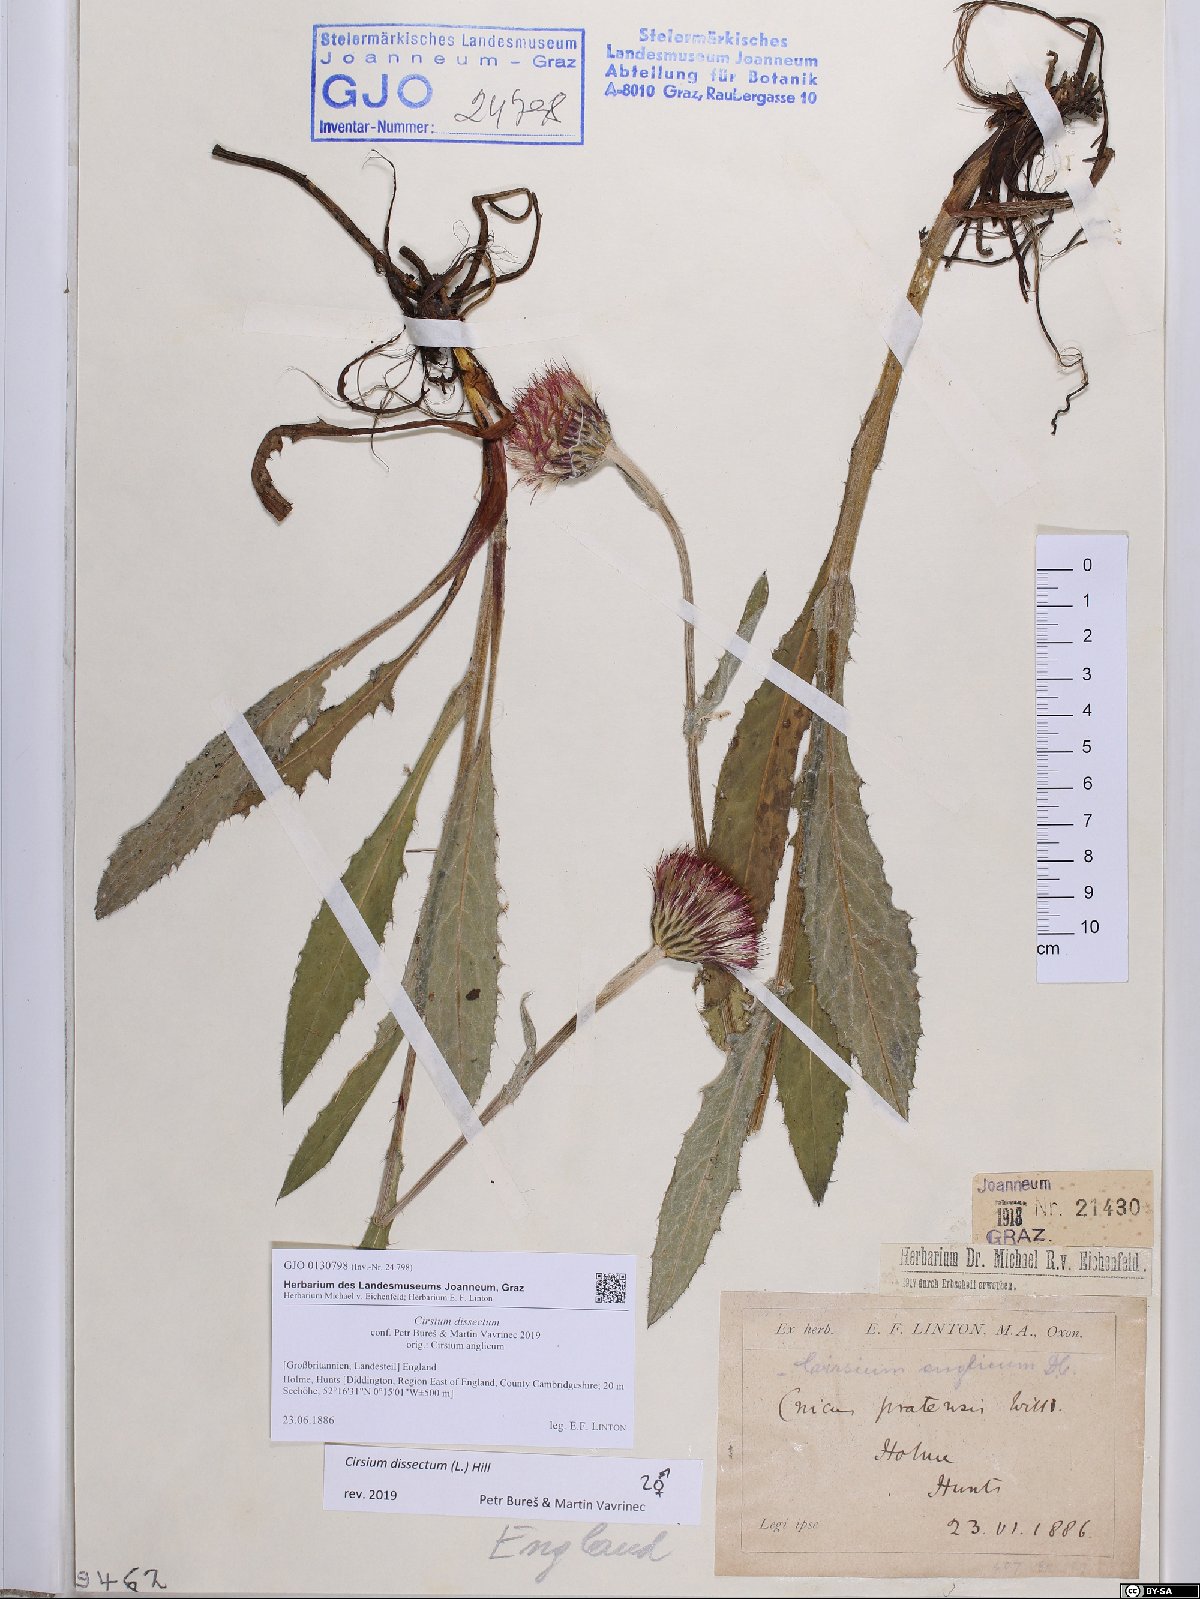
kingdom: Plantae
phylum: Tracheophyta
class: Magnoliopsida
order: Asterales
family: Asteraceae
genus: Cirsium
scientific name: Cirsium dissectum
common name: Meadow thistle
